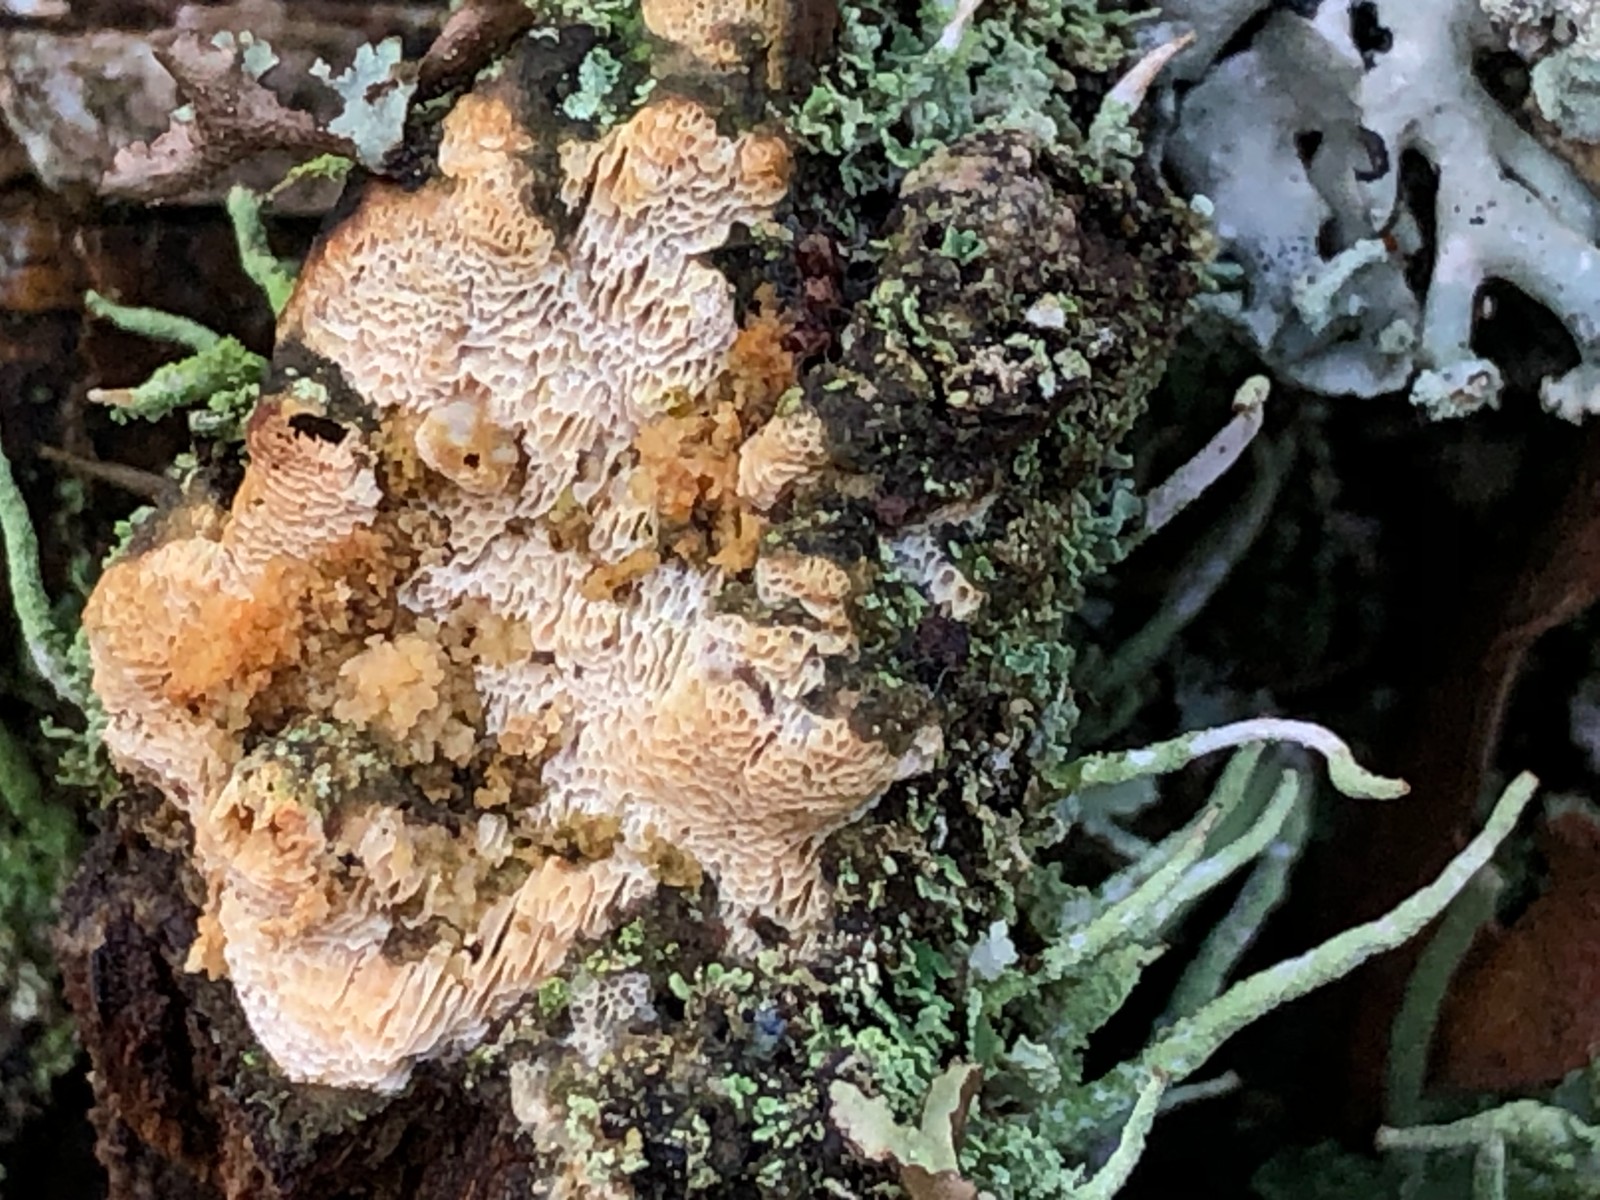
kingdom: Fungi
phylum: Basidiomycota
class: Agaricomycetes
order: Polyporales
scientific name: Polyporales
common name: poresvampordenen
